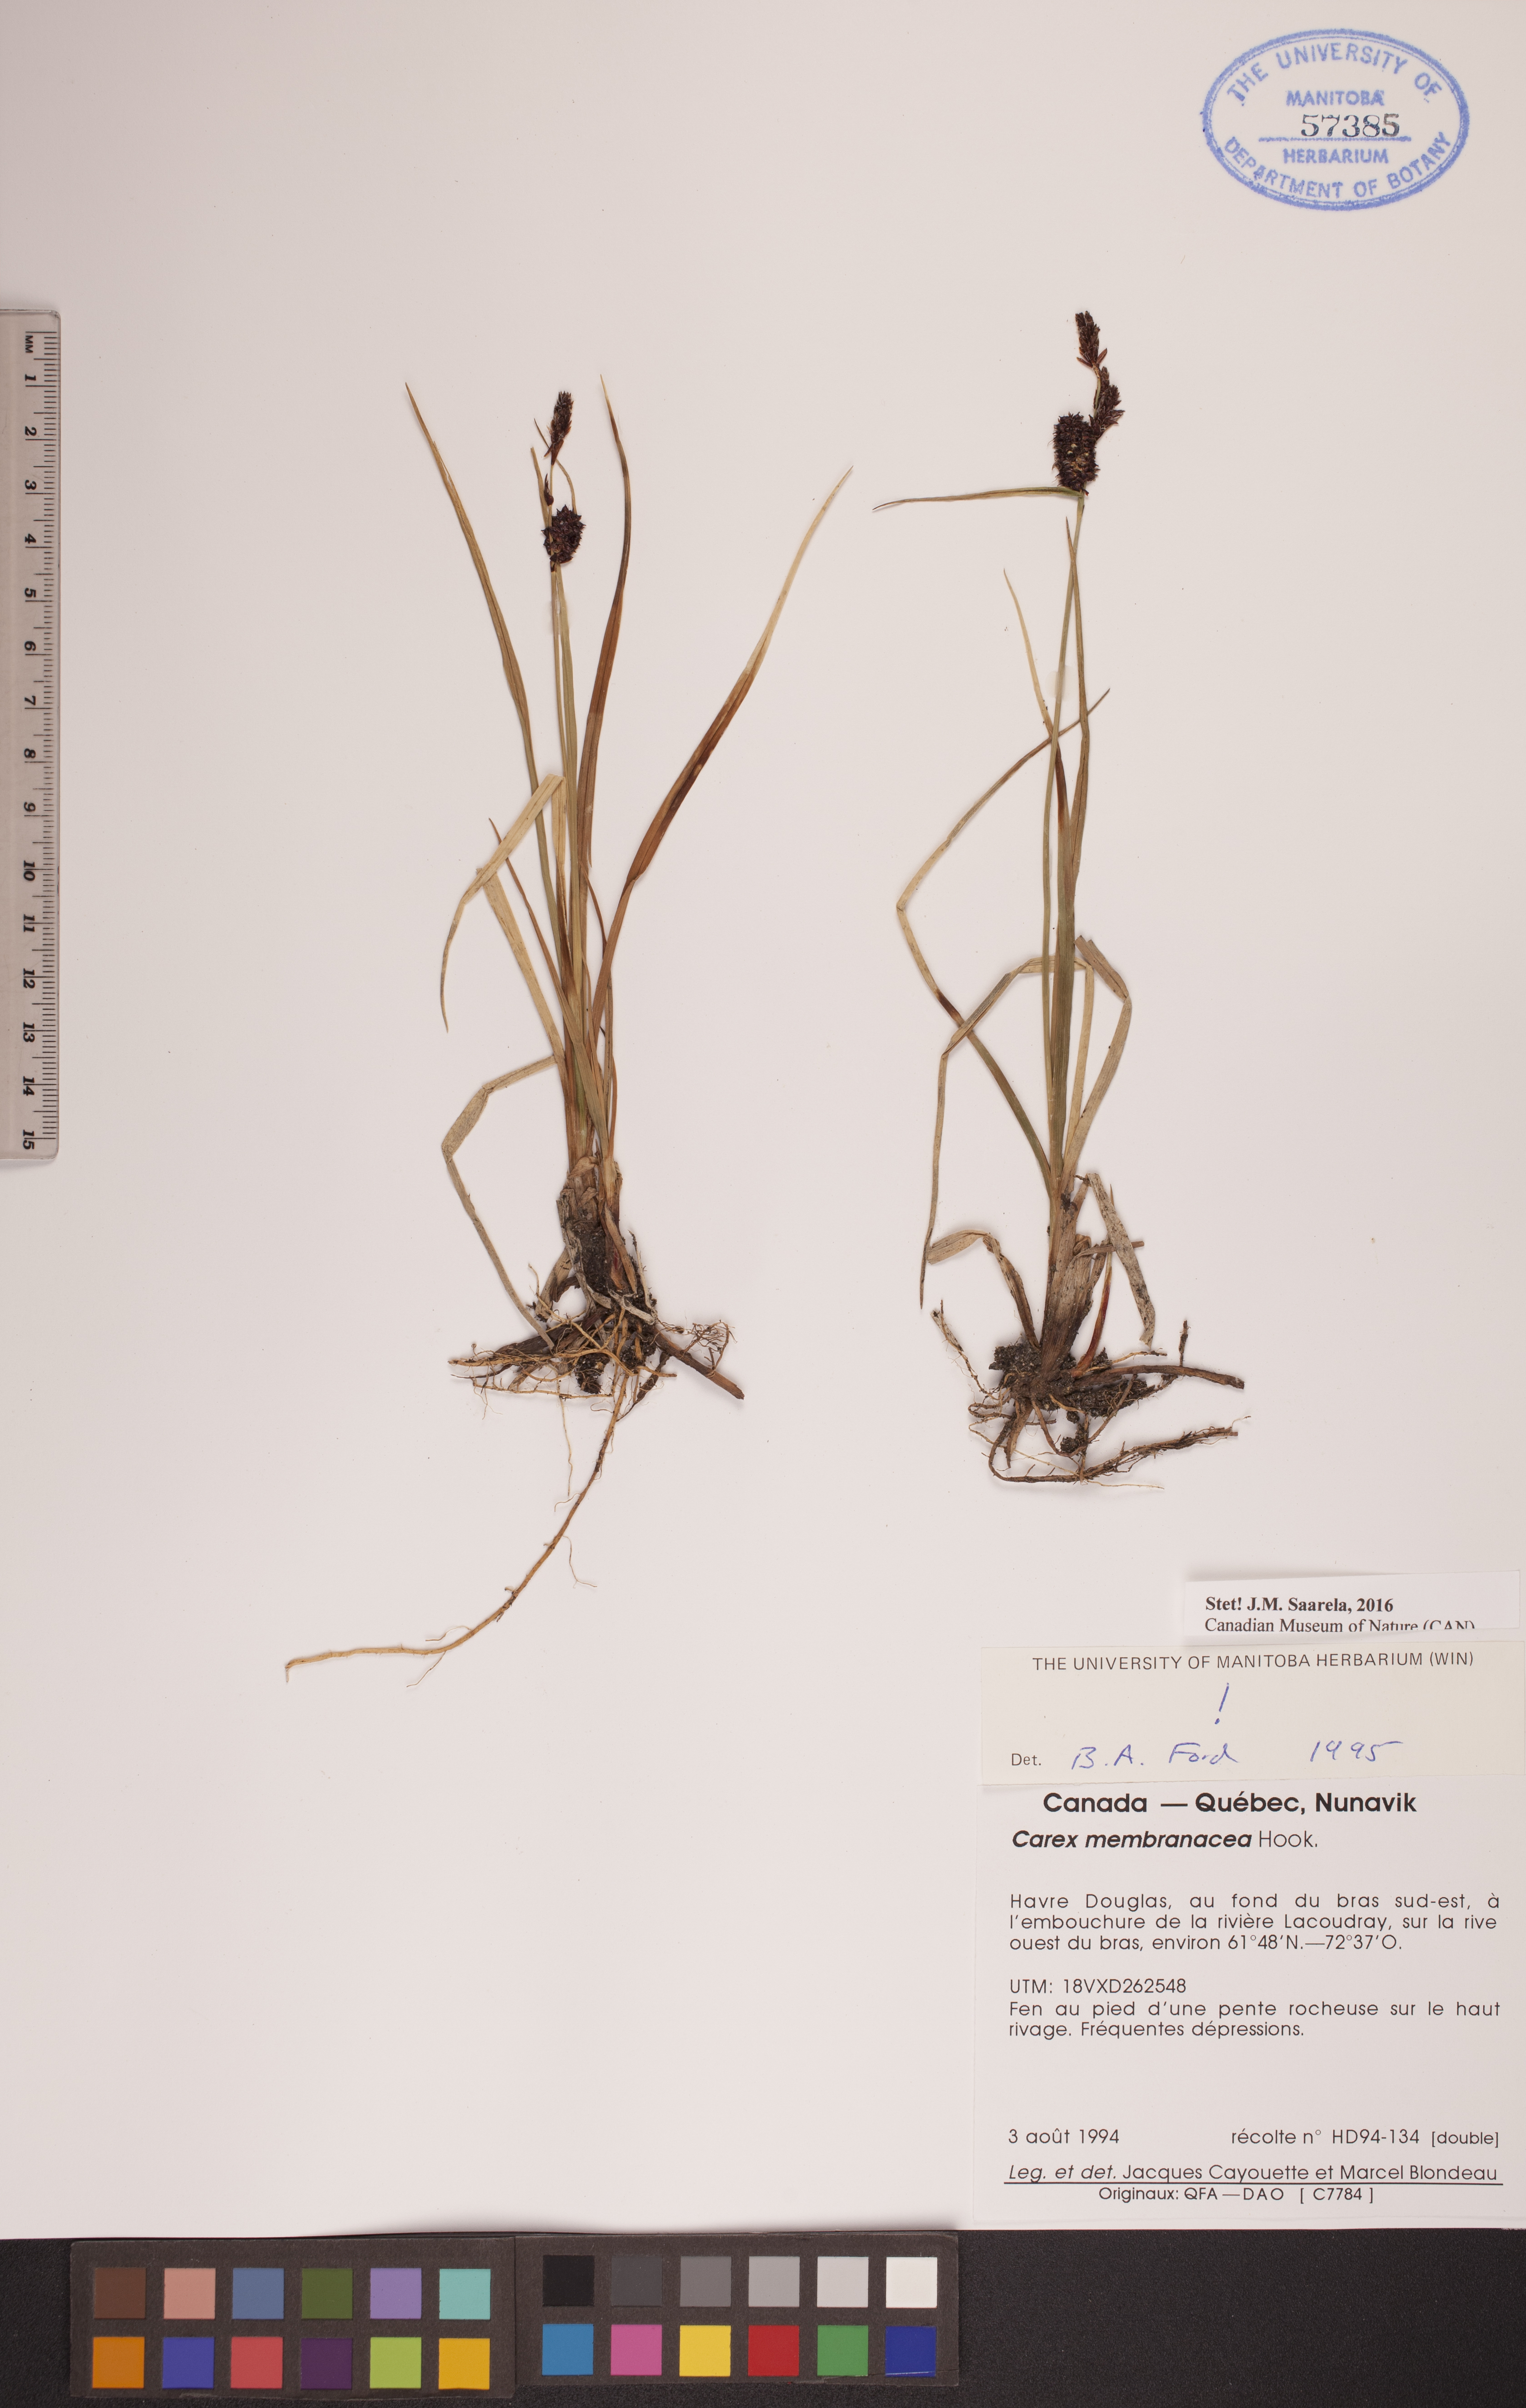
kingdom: Plantae
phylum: Tracheophyta
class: Liliopsida
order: Poales
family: Cyperaceae
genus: Carex
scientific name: Carex membranacea
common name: Fragile sedge
